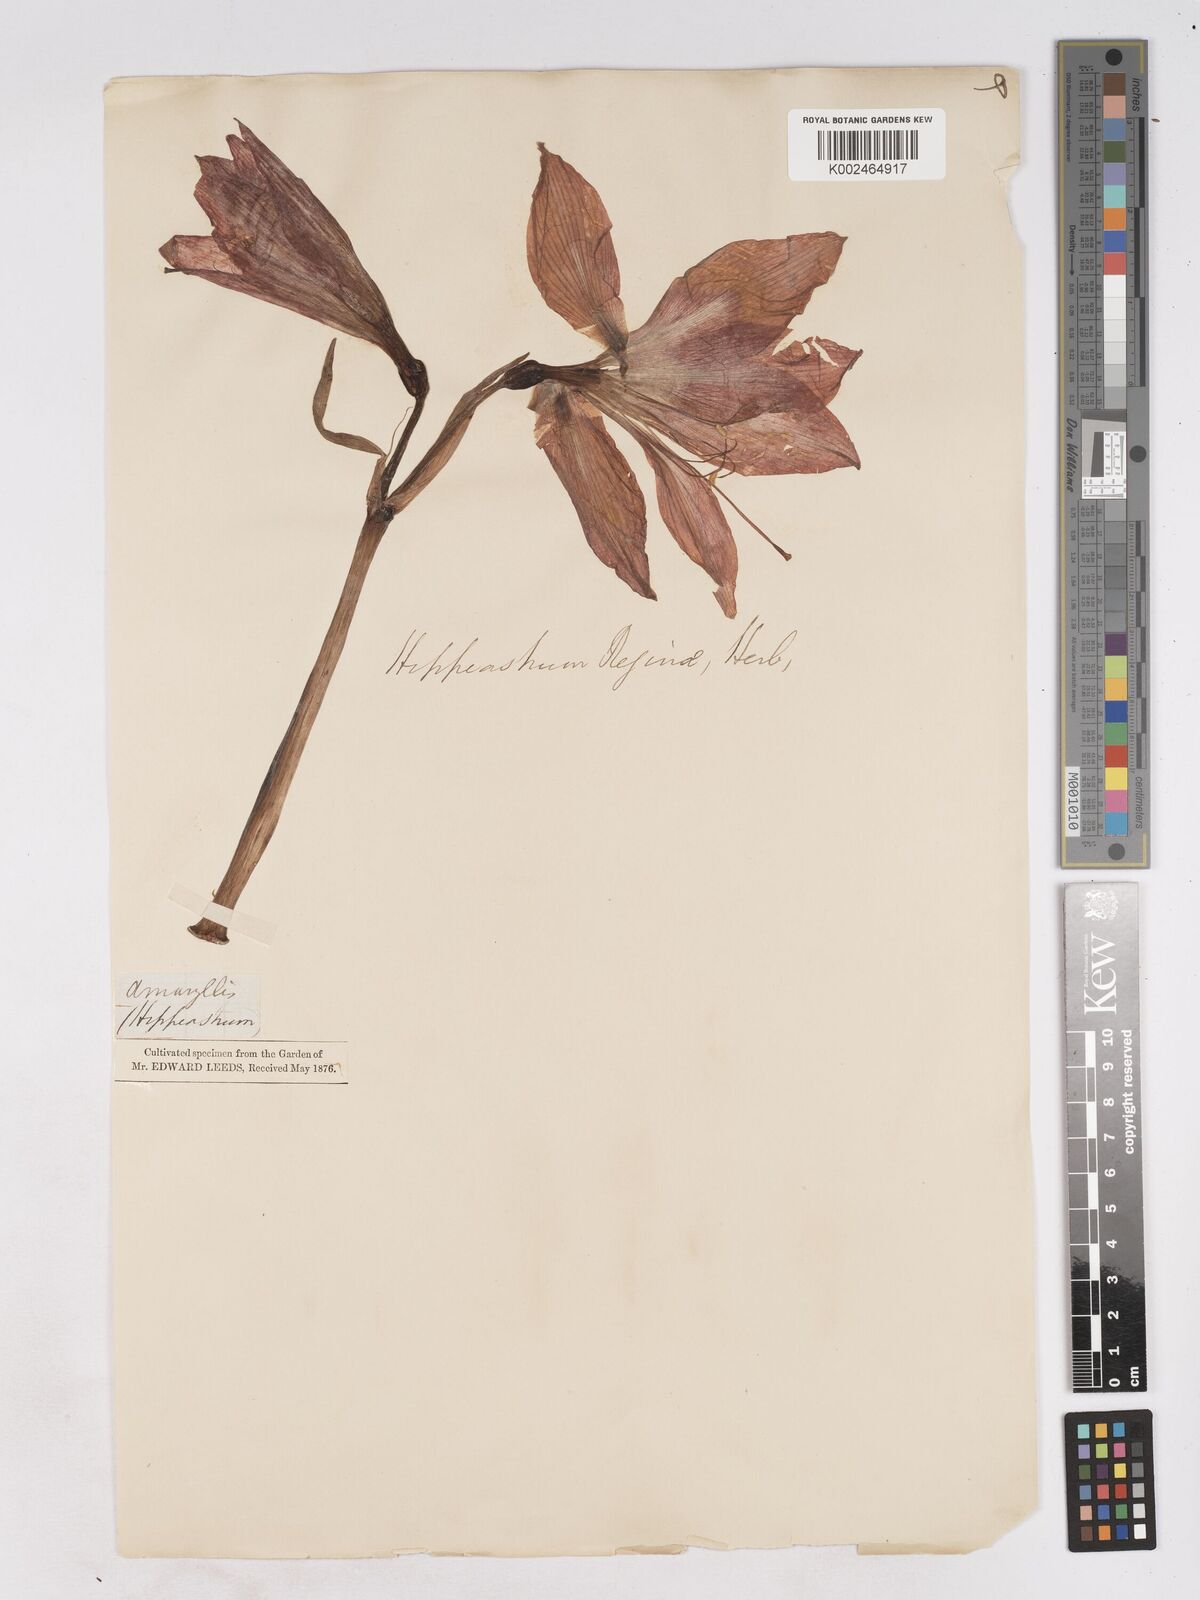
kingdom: Plantae
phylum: Tracheophyta
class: Liliopsida
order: Asparagales
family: Amaryllidaceae
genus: Hippeastrum
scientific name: Hippeastrum reginae
